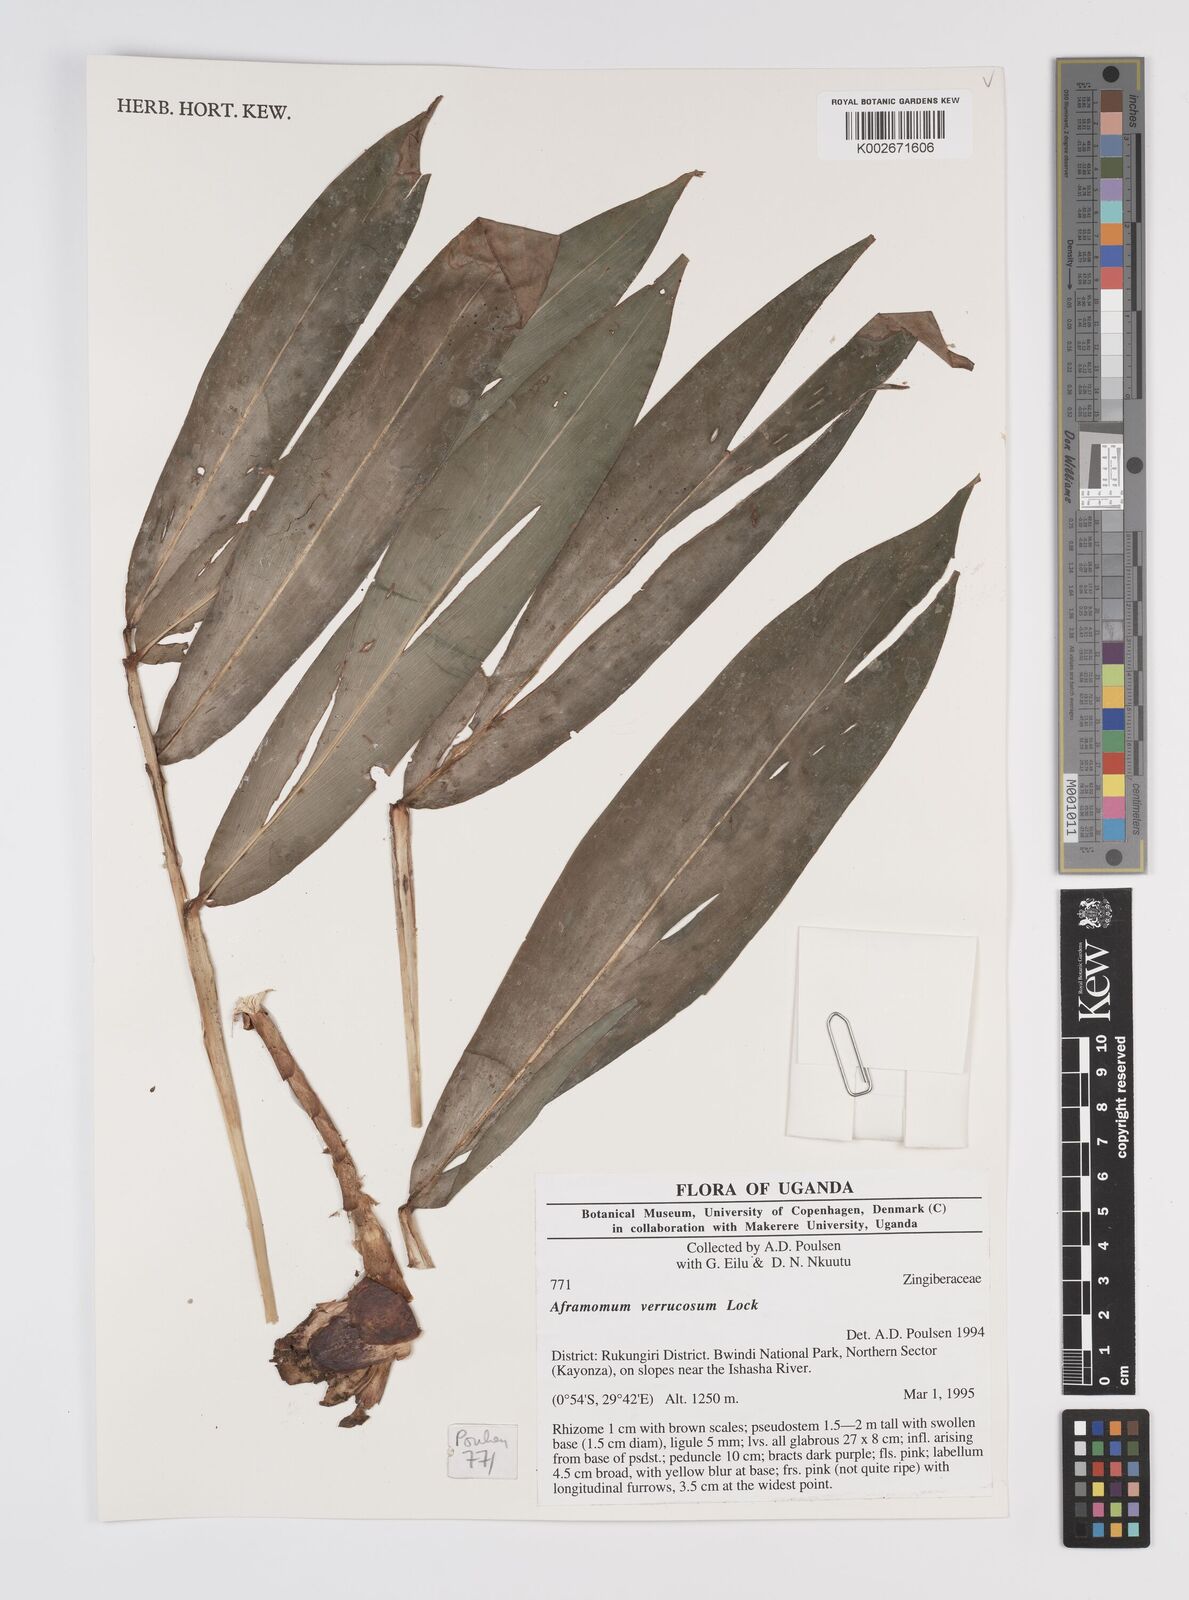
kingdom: Plantae
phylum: Tracheophyta
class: Liliopsida
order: Zingiberales
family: Zingiberaceae
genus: Aframomum
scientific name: Aframomum verrucosum
